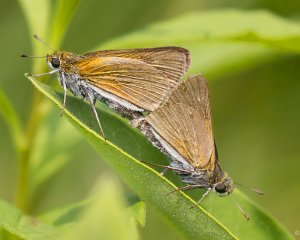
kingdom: Animalia
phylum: Arthropoda
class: Insecta
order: Lepidoptera
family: Hesperiidae
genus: Euphyes
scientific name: Euphyes bimacula
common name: Two-spotted Skipper
